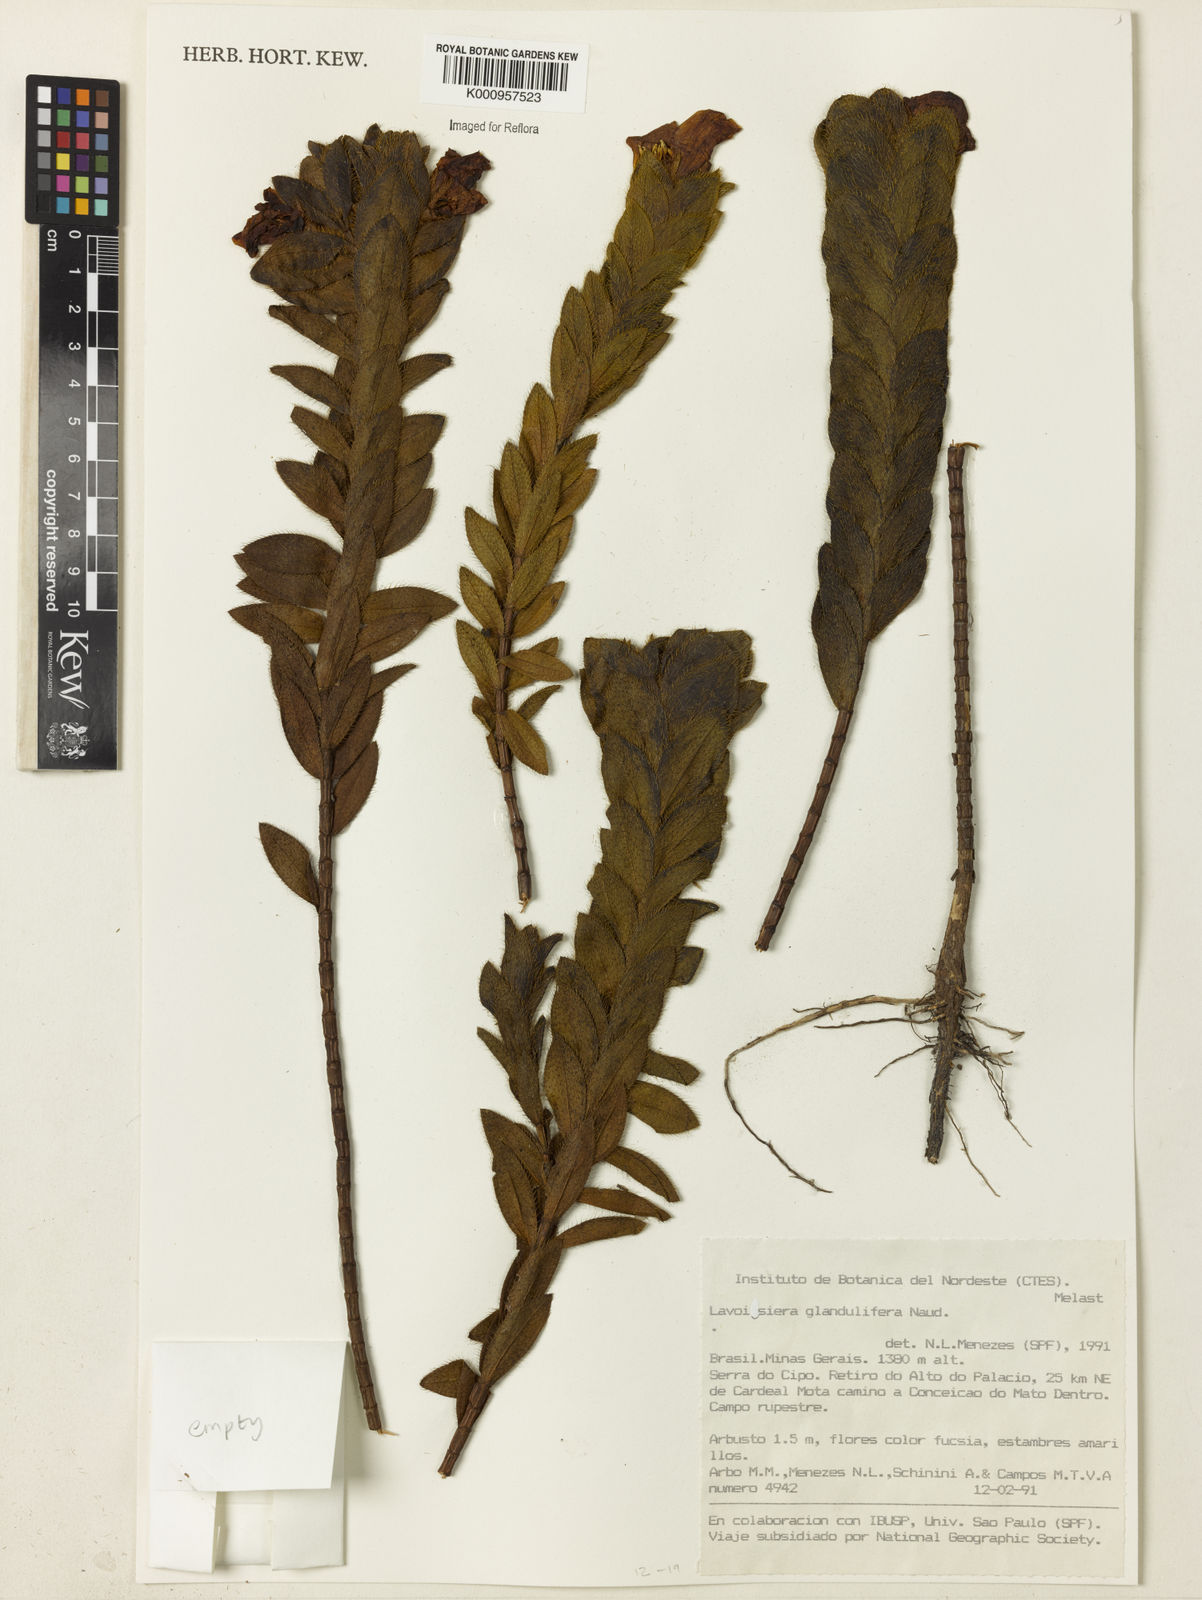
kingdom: Plantae
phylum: Tracheophyta
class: Magnoliopsida
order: Myrtales
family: Melastomataceae
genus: Microlicia
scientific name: Microlicia glandulifolia
